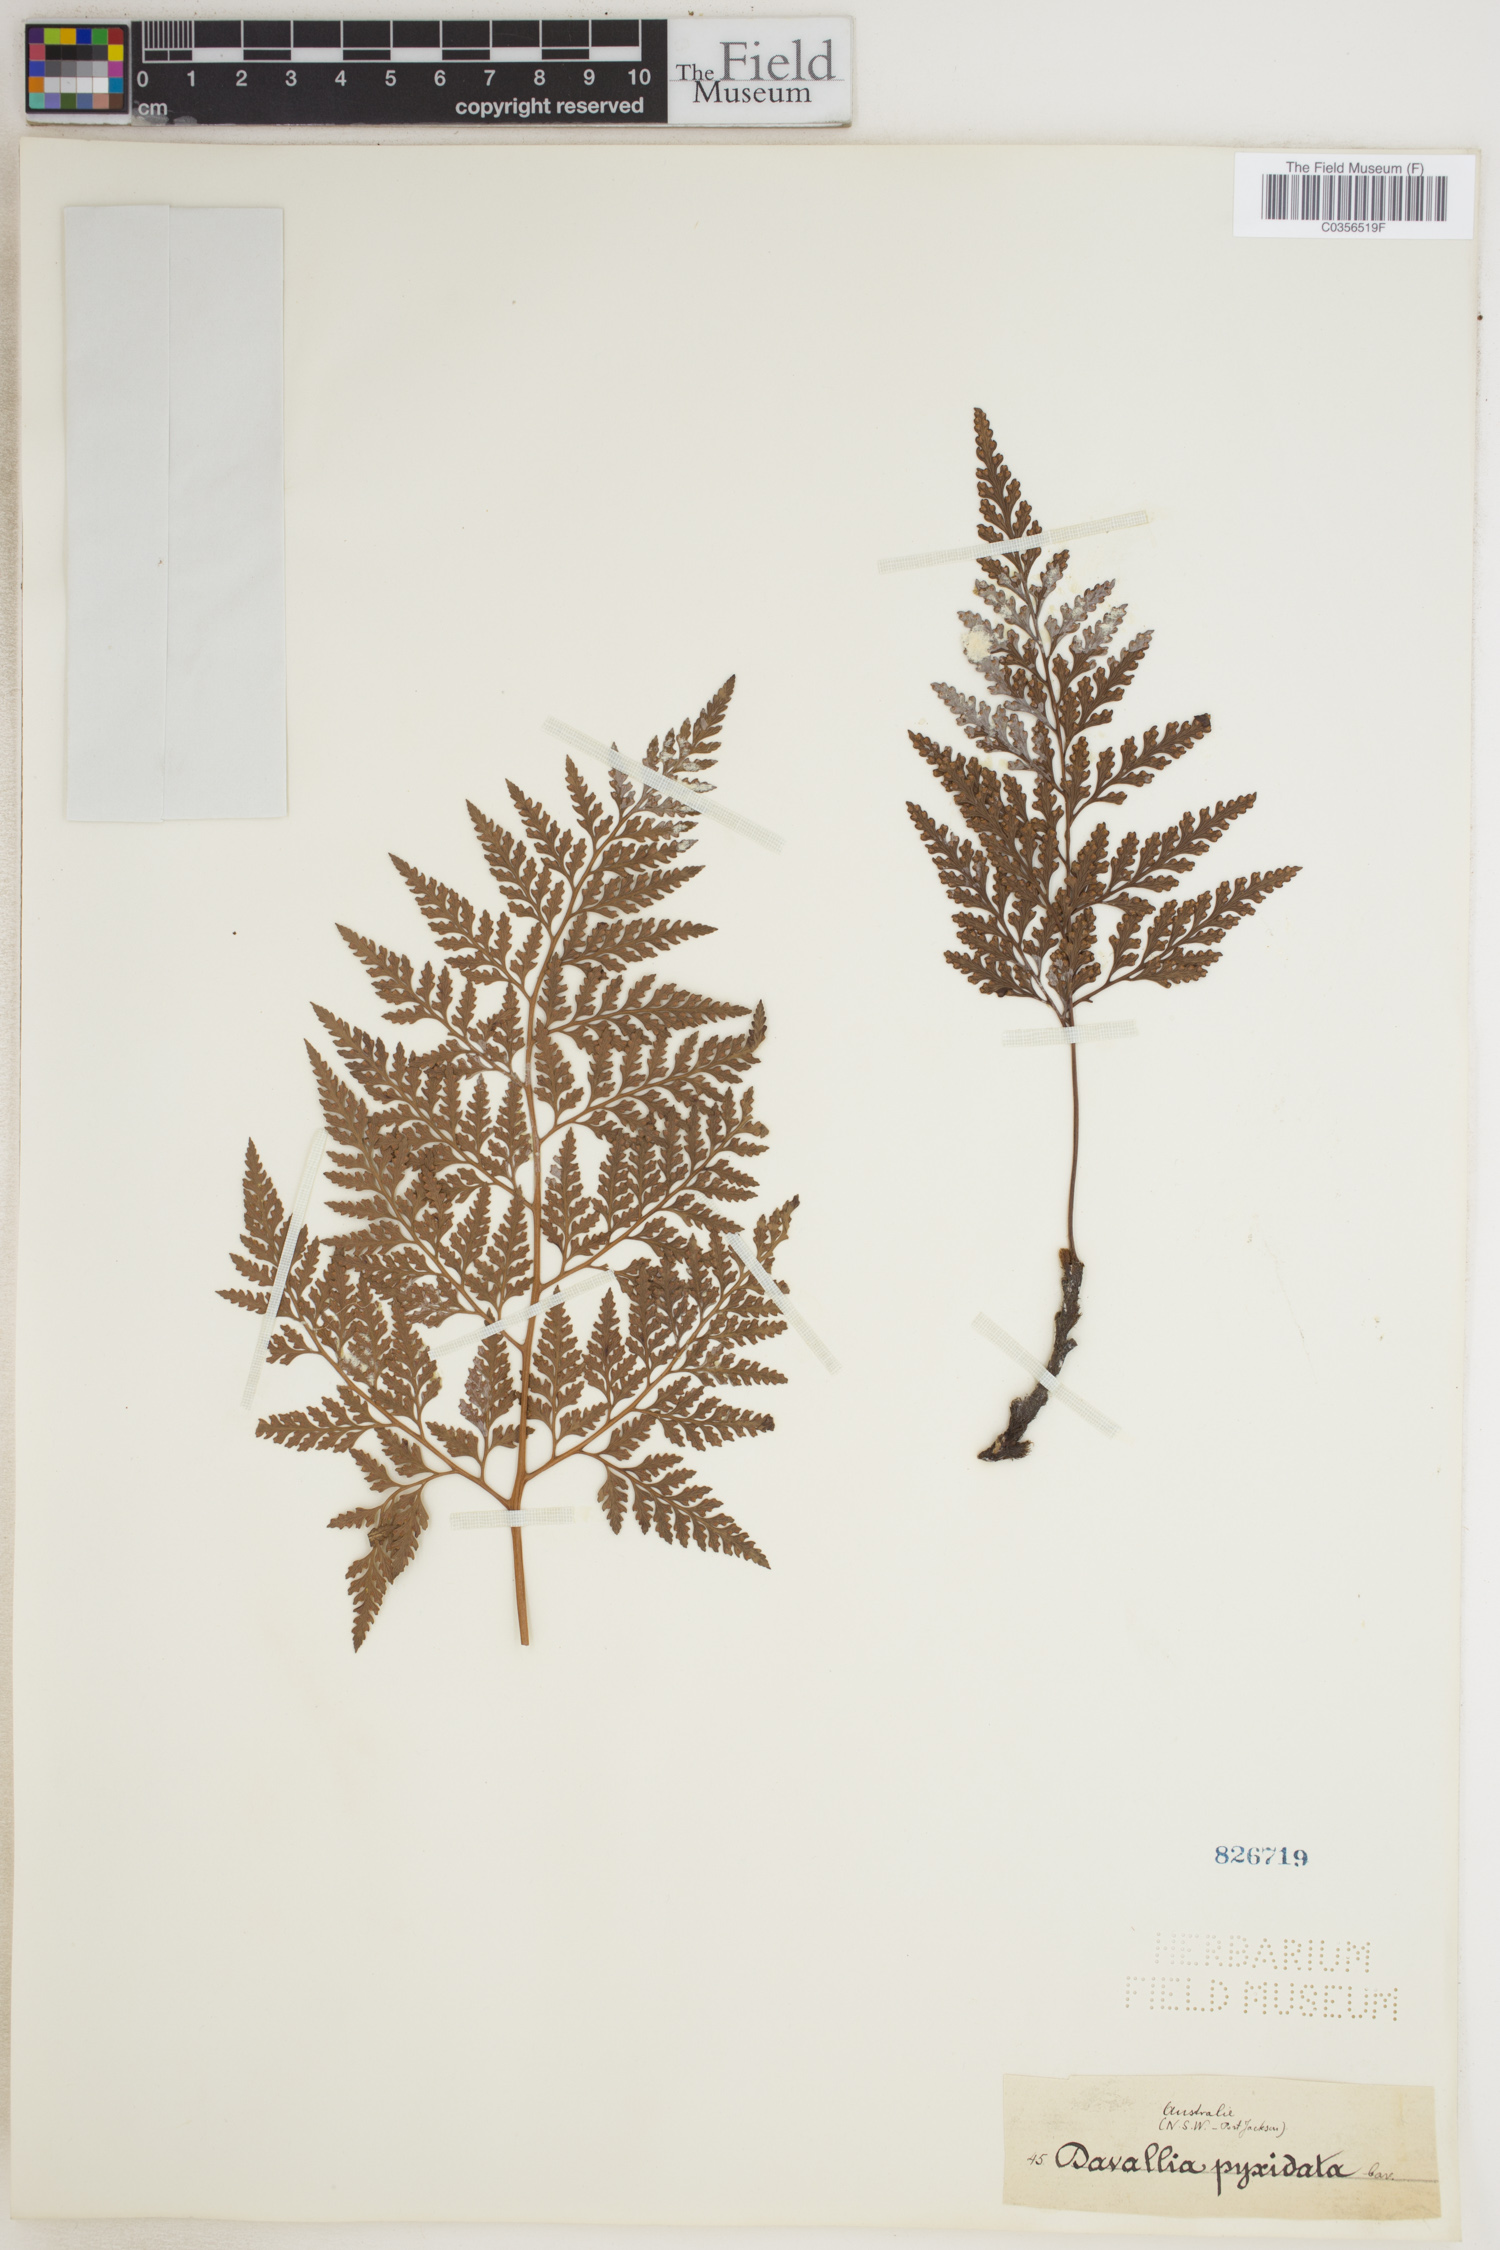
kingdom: Plantae
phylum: Tracheophyta
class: Polypodiopsida
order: Polypodiales
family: Davalliaceae
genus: Davallia
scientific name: Davallia pyxidata
